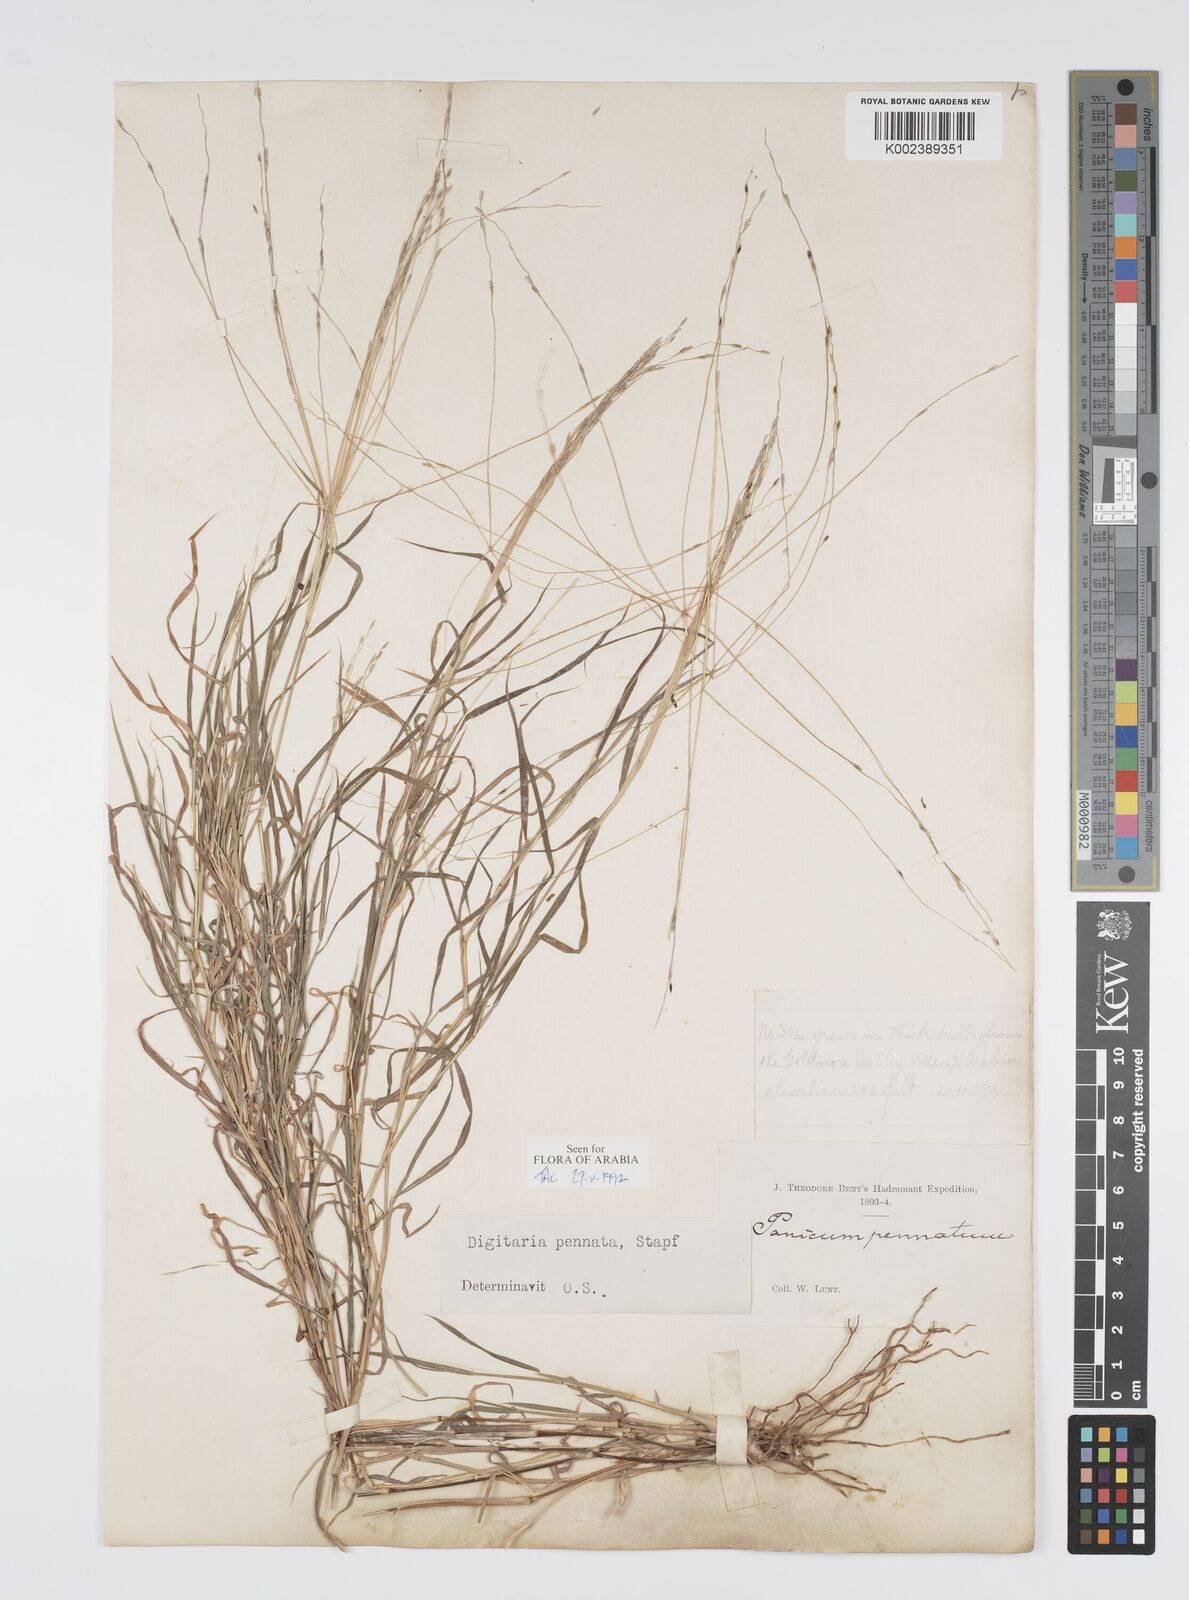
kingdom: Plantae
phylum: Tracheophyta
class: Liliopsida
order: Poales
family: Poaceae
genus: Digitaria
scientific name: Digitaria pennata
